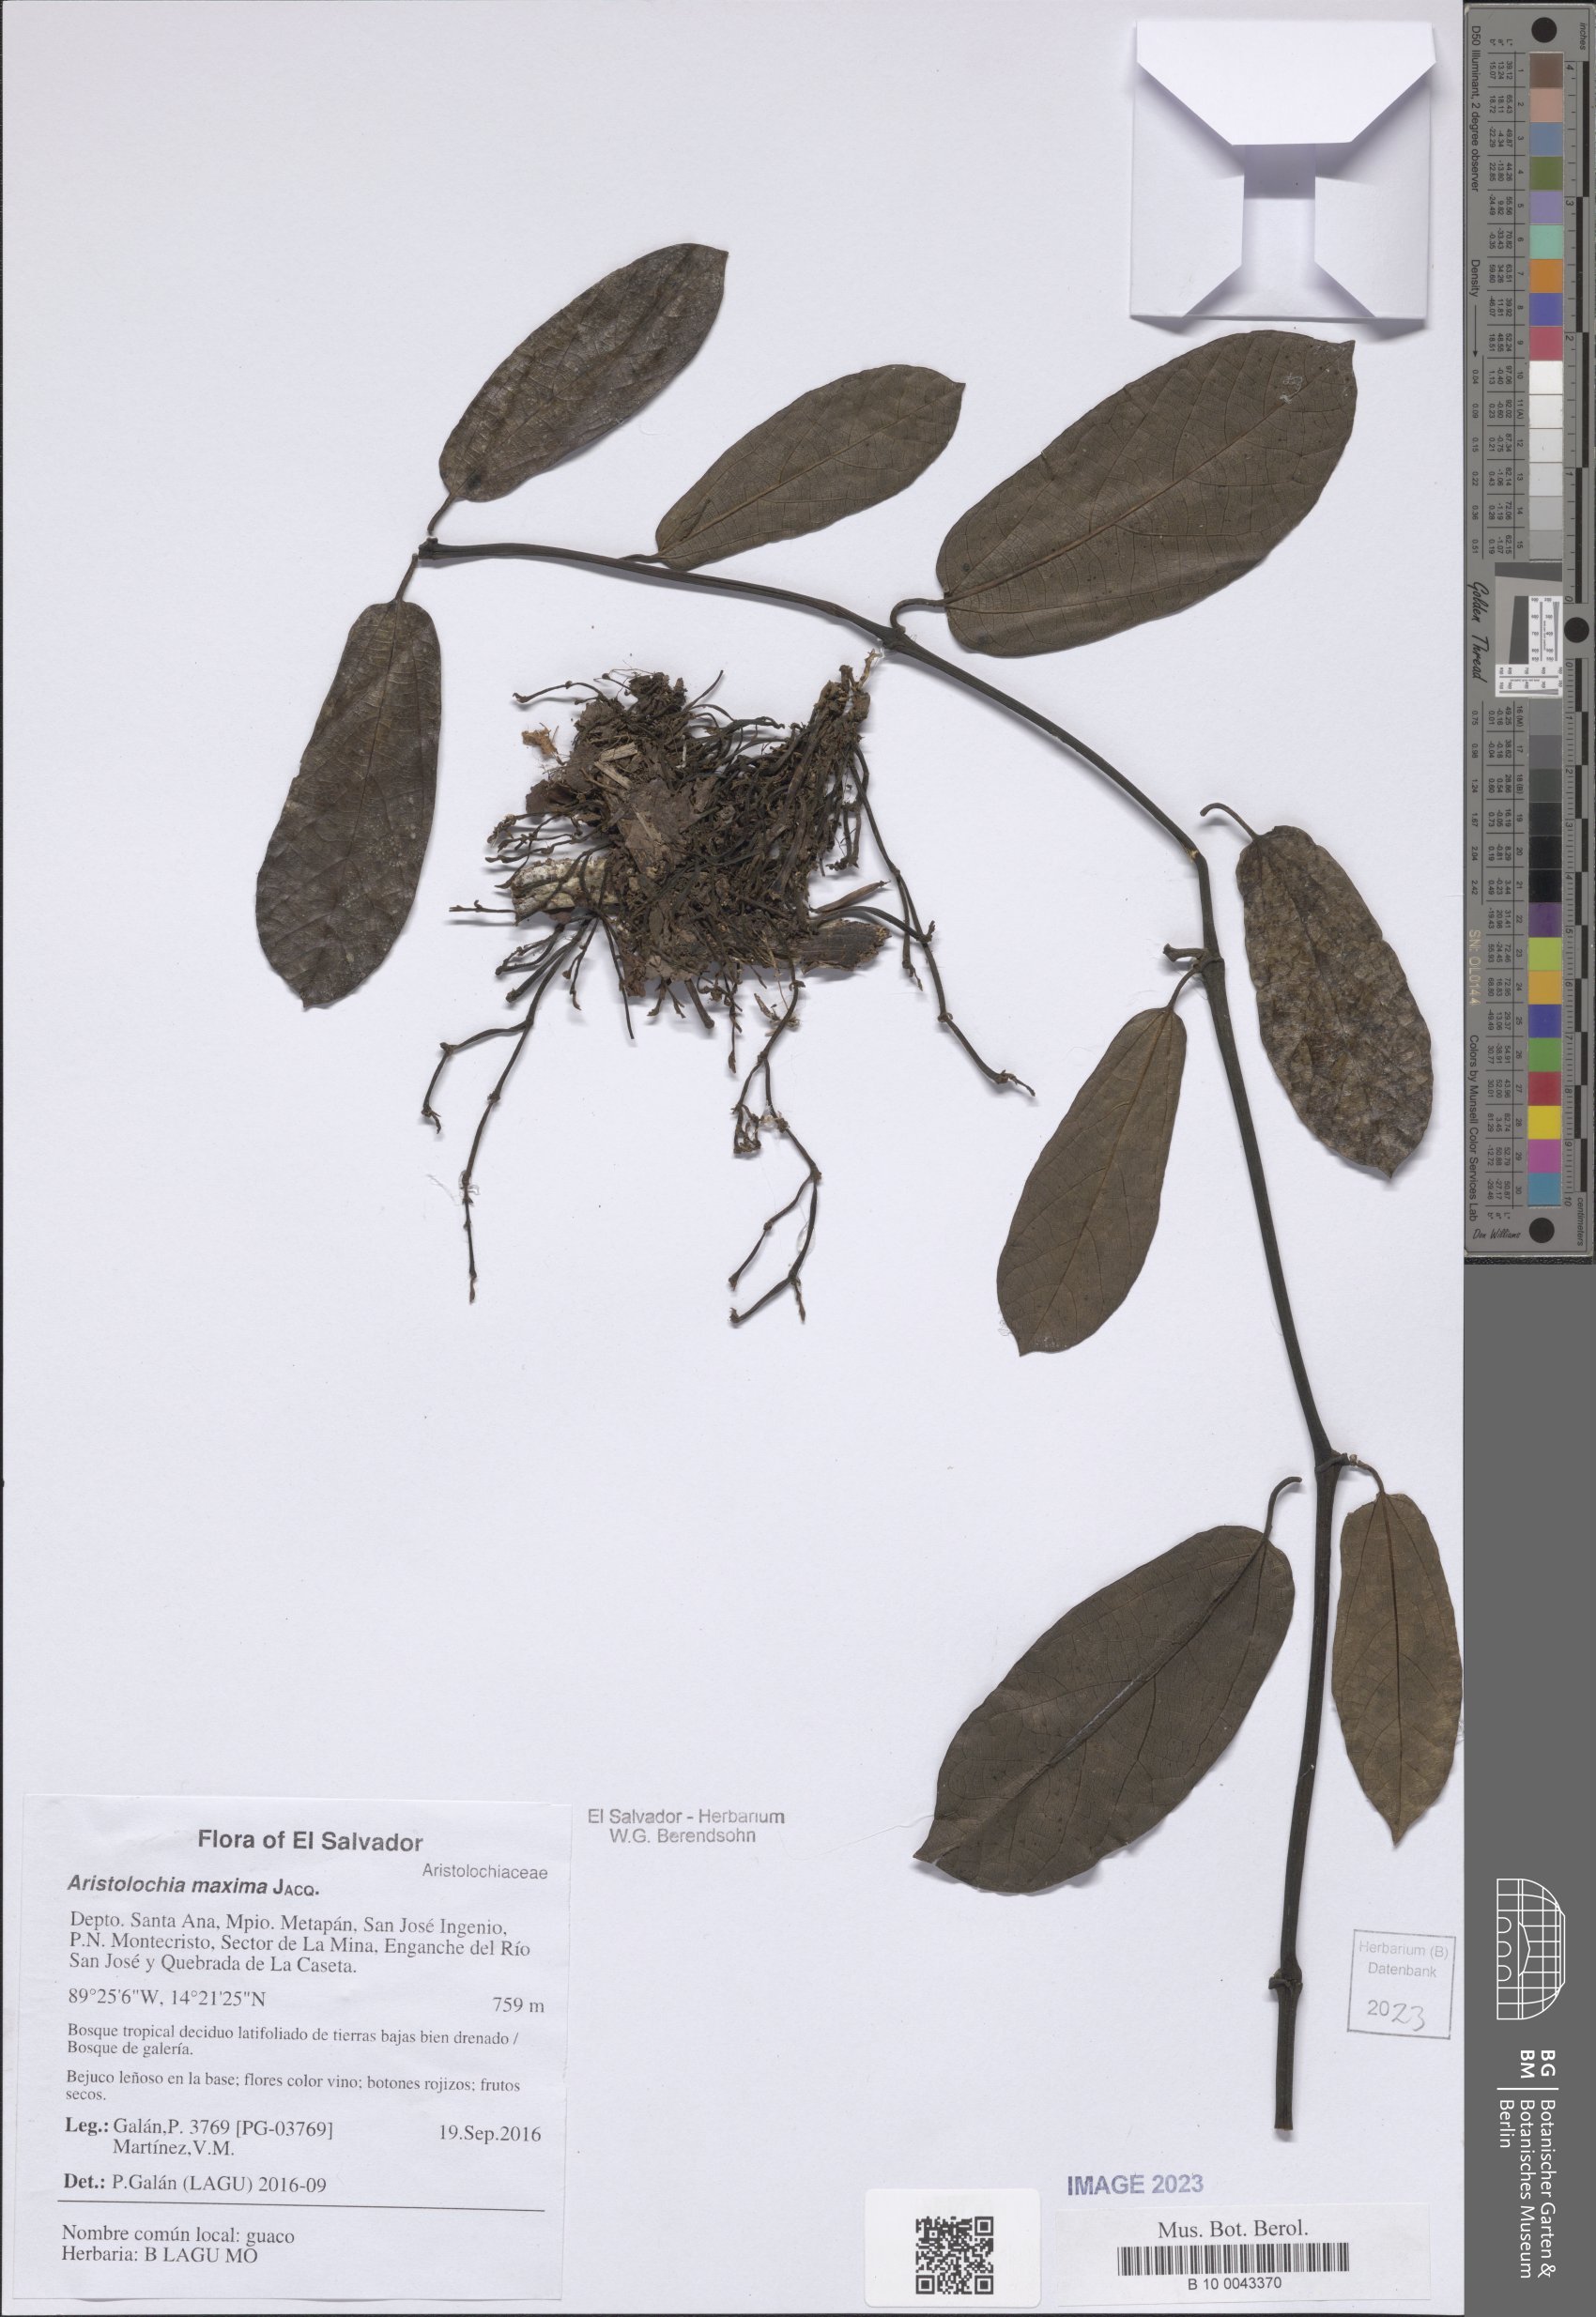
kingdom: Plantae
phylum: Tracheophyta
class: Magnoliopsida
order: Piperales
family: Aristolochiaceae
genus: Aristolochia
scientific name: Aristolochia maxima
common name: Florida dutchman's pipe
